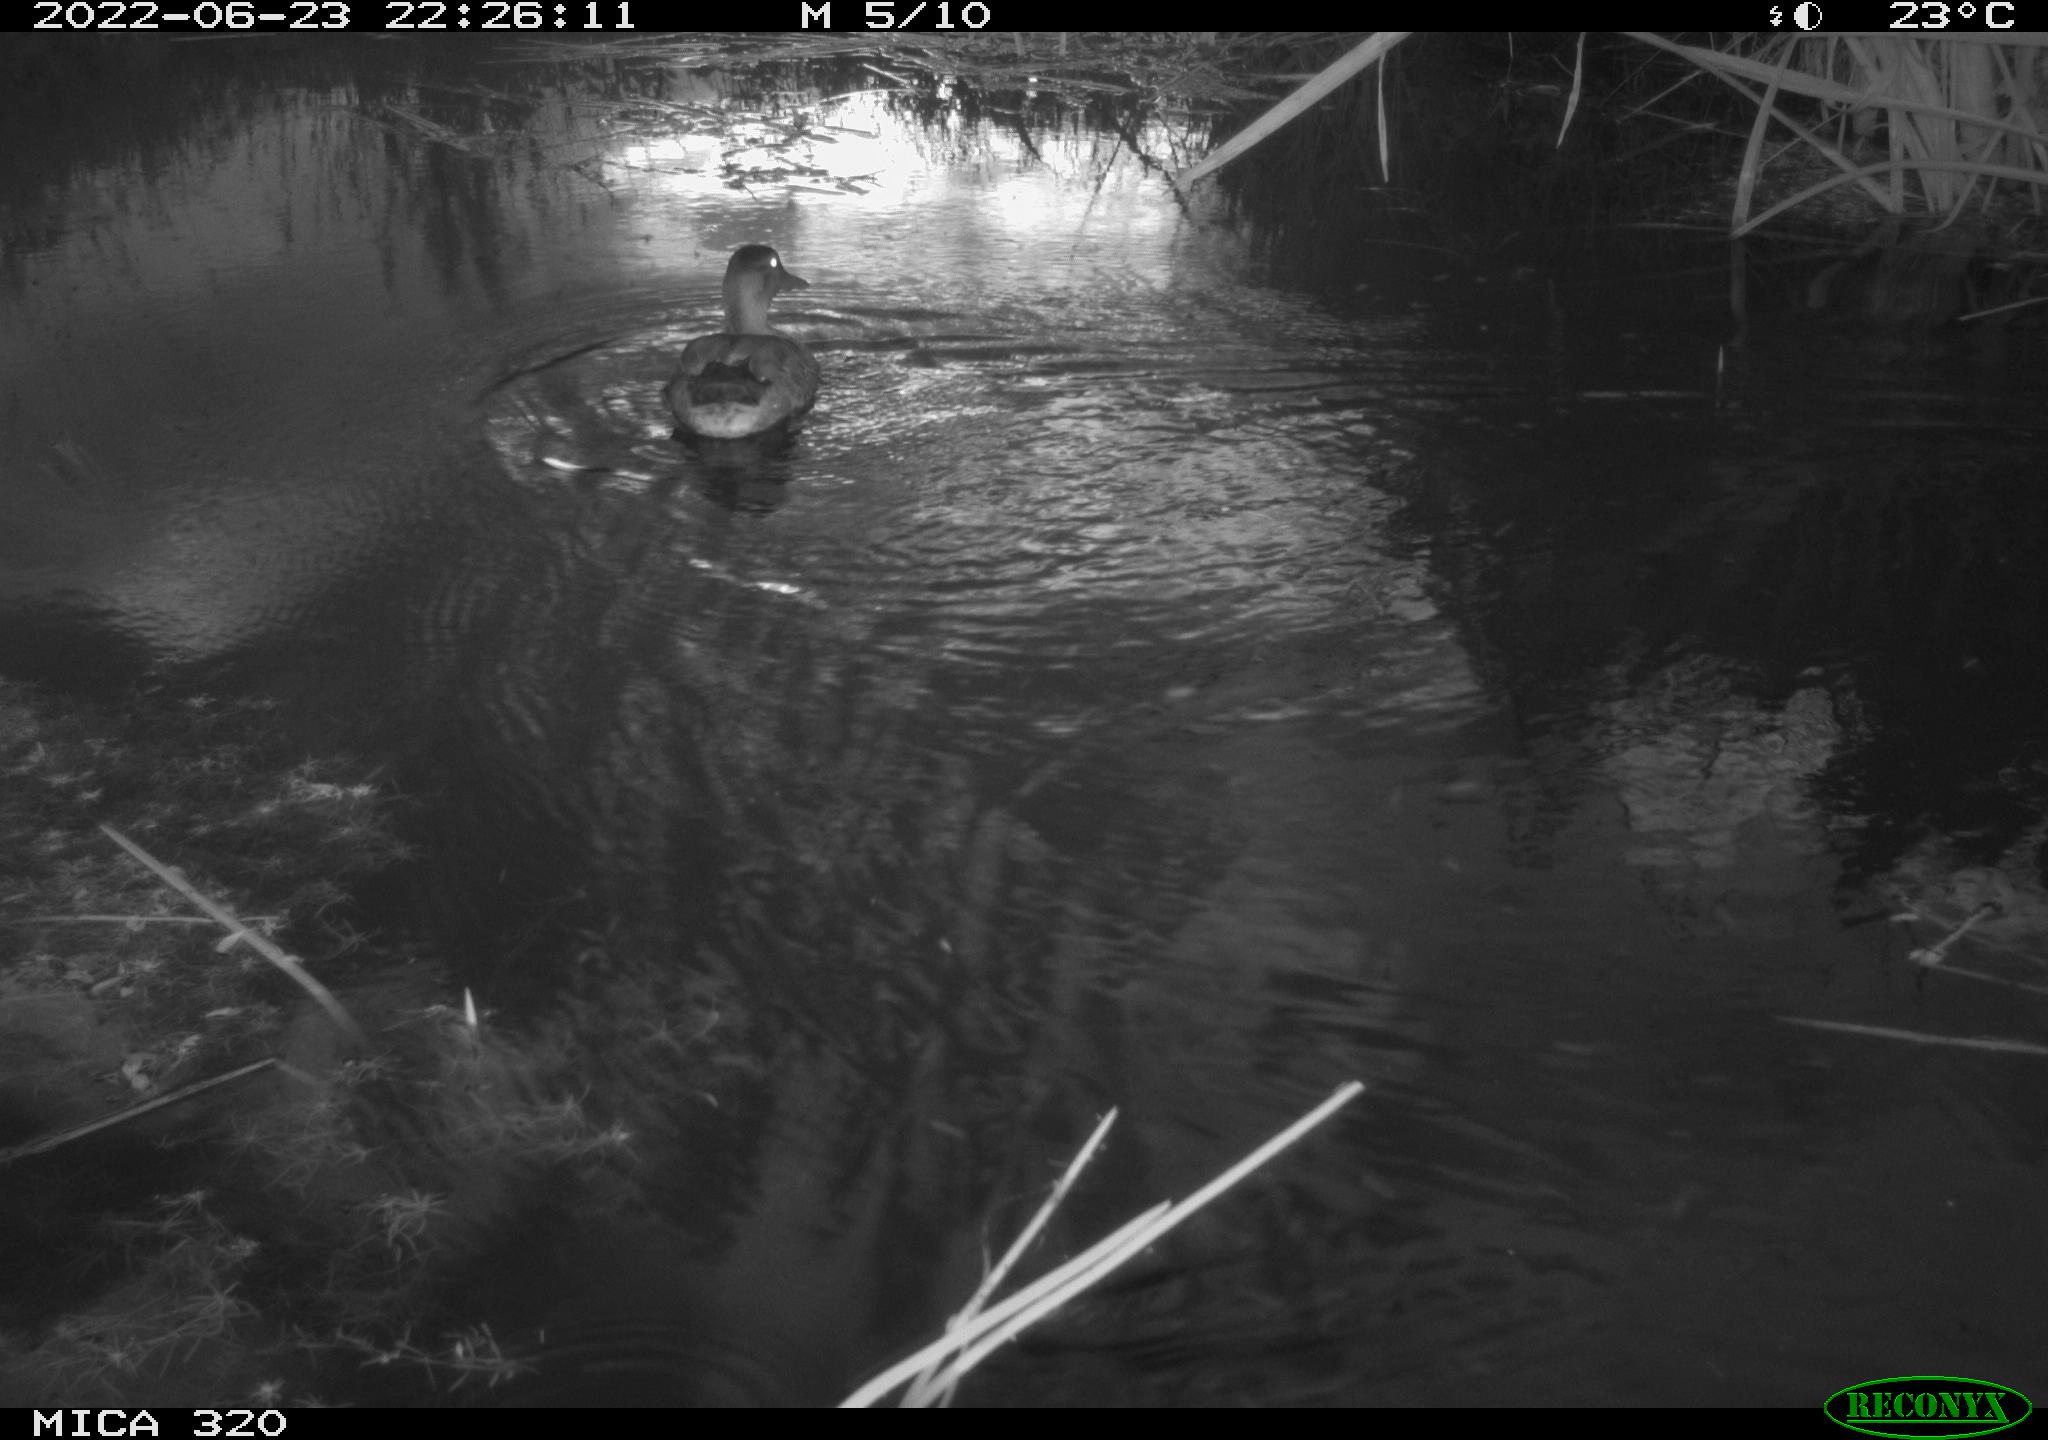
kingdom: Animalia
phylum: Chordata
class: Aves
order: Anseriformes
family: Anatidae
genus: Anas
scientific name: Anas platyrhynchos
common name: Mallard
